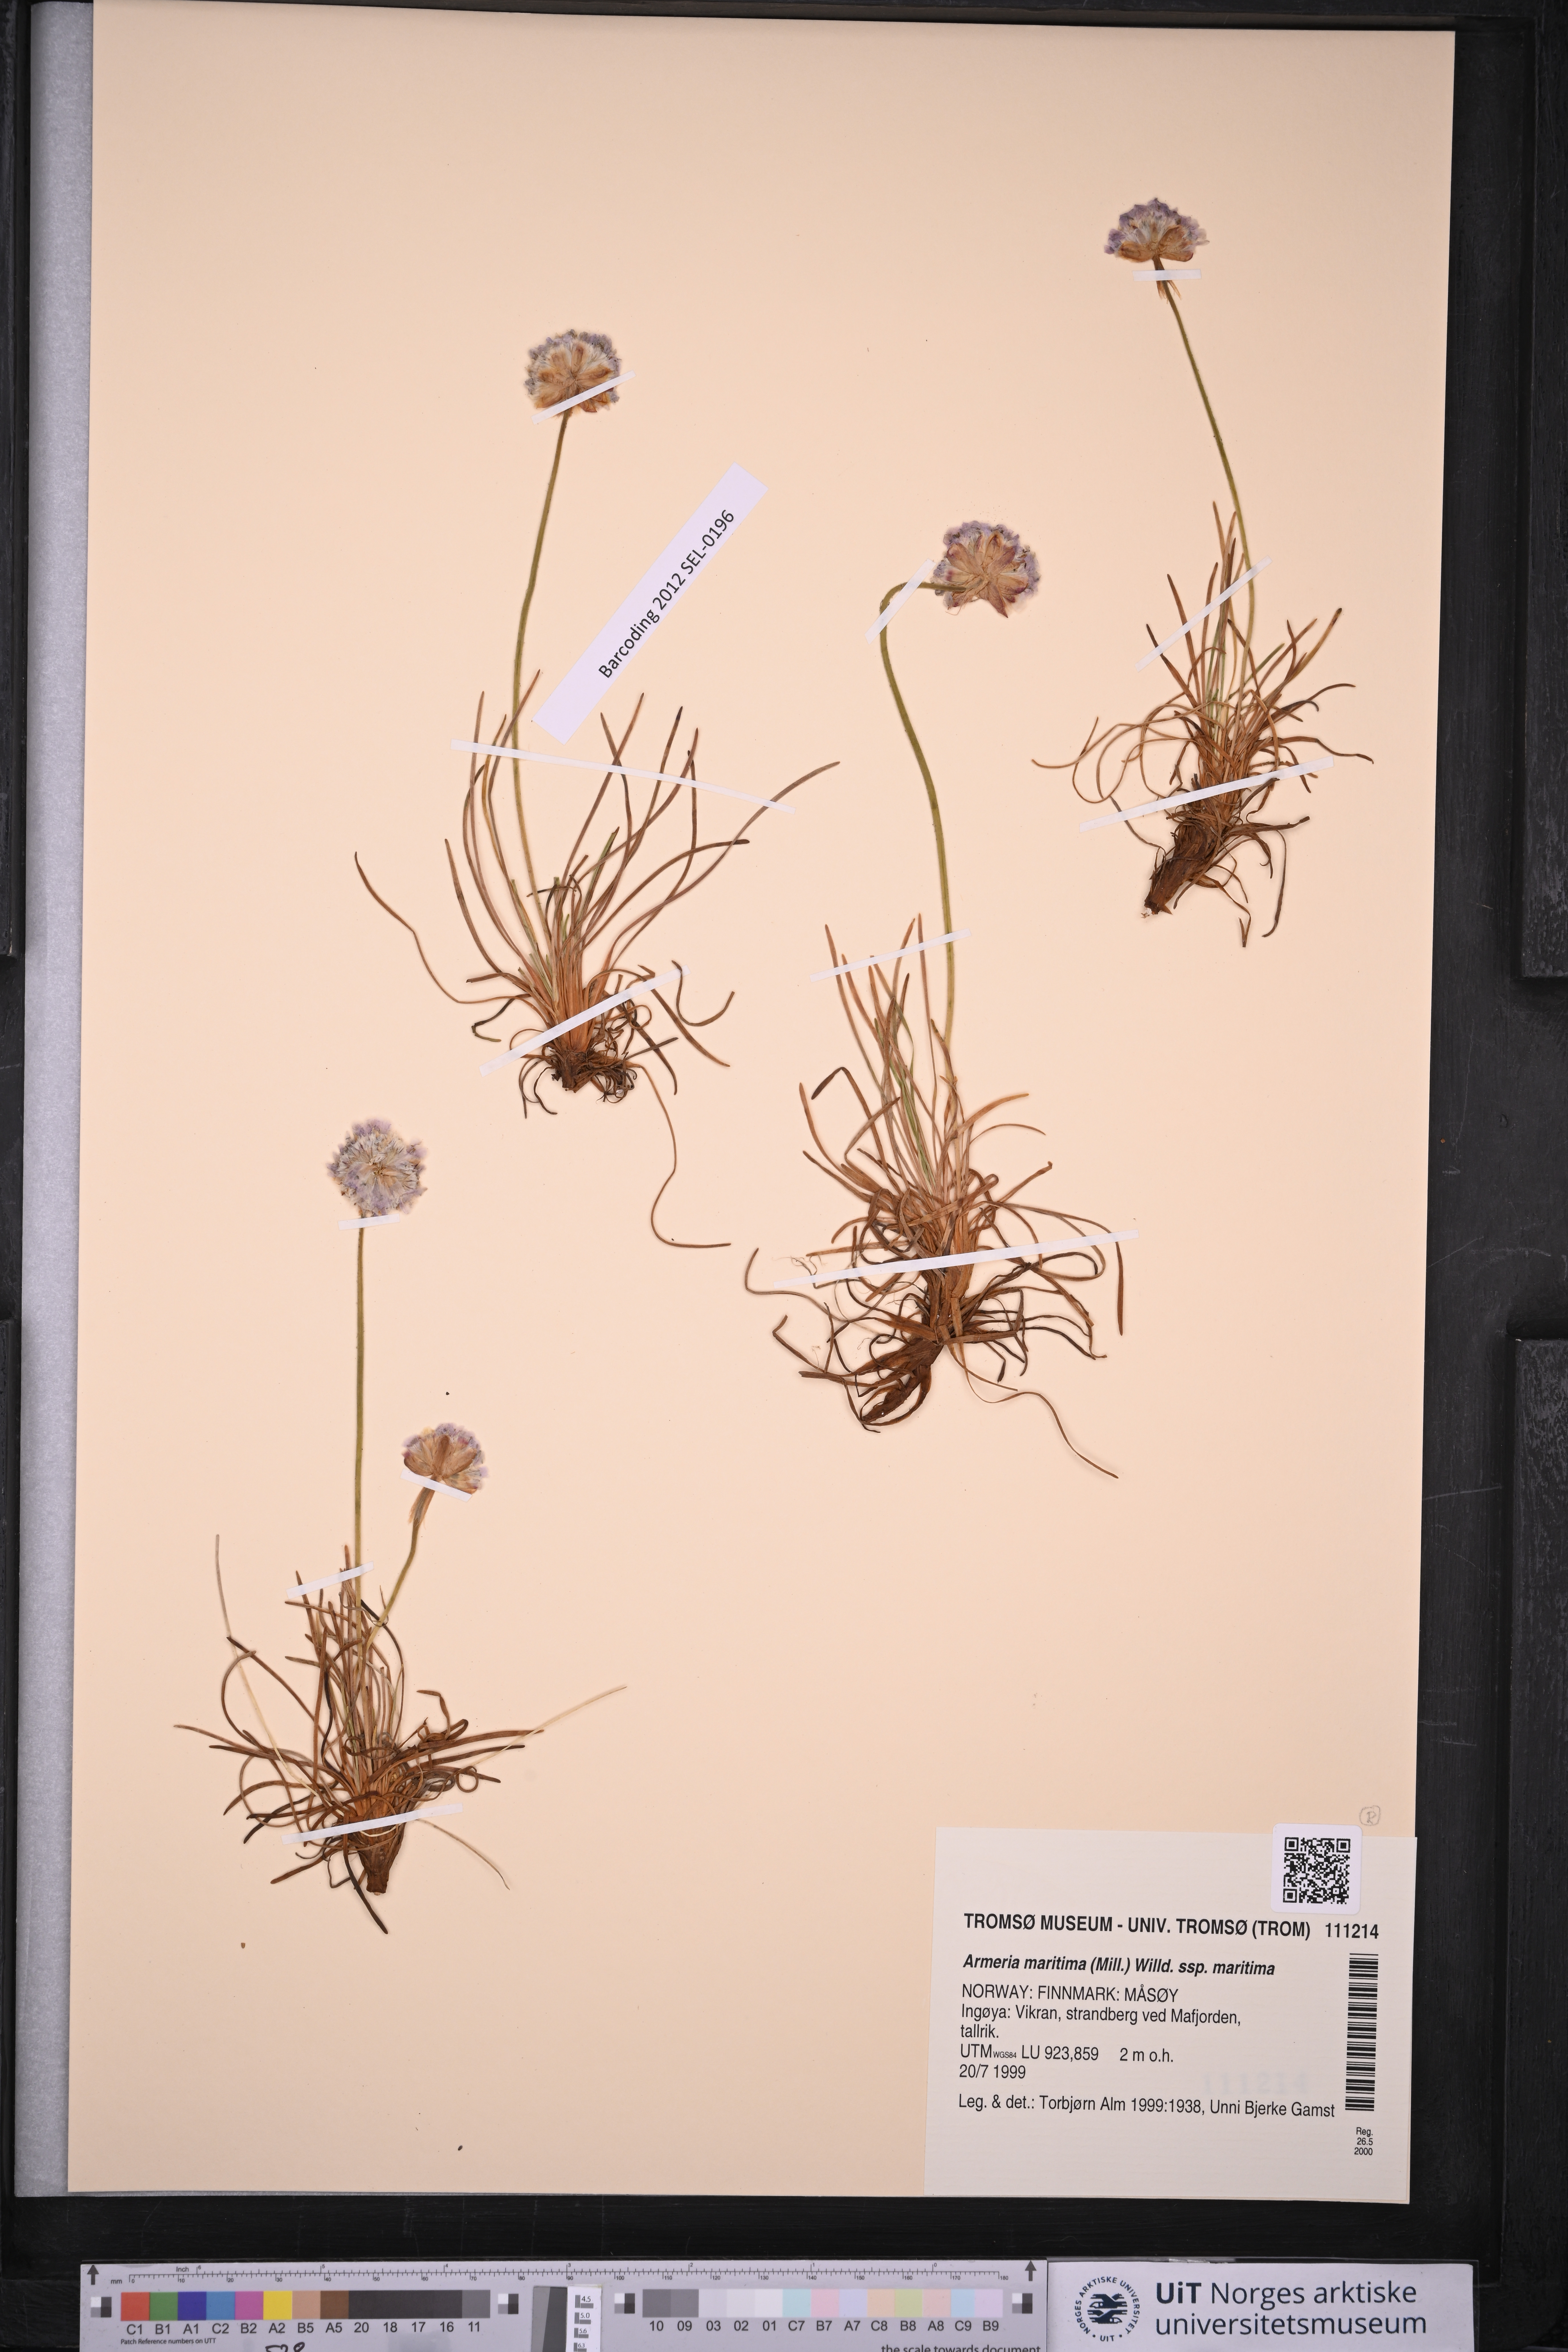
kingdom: Plantae
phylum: Tracheophyta
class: Magnoliopsida
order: Caryophyllales
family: Plumbaginaceae
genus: Armeria
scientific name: Armeria maritima
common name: Thrift
